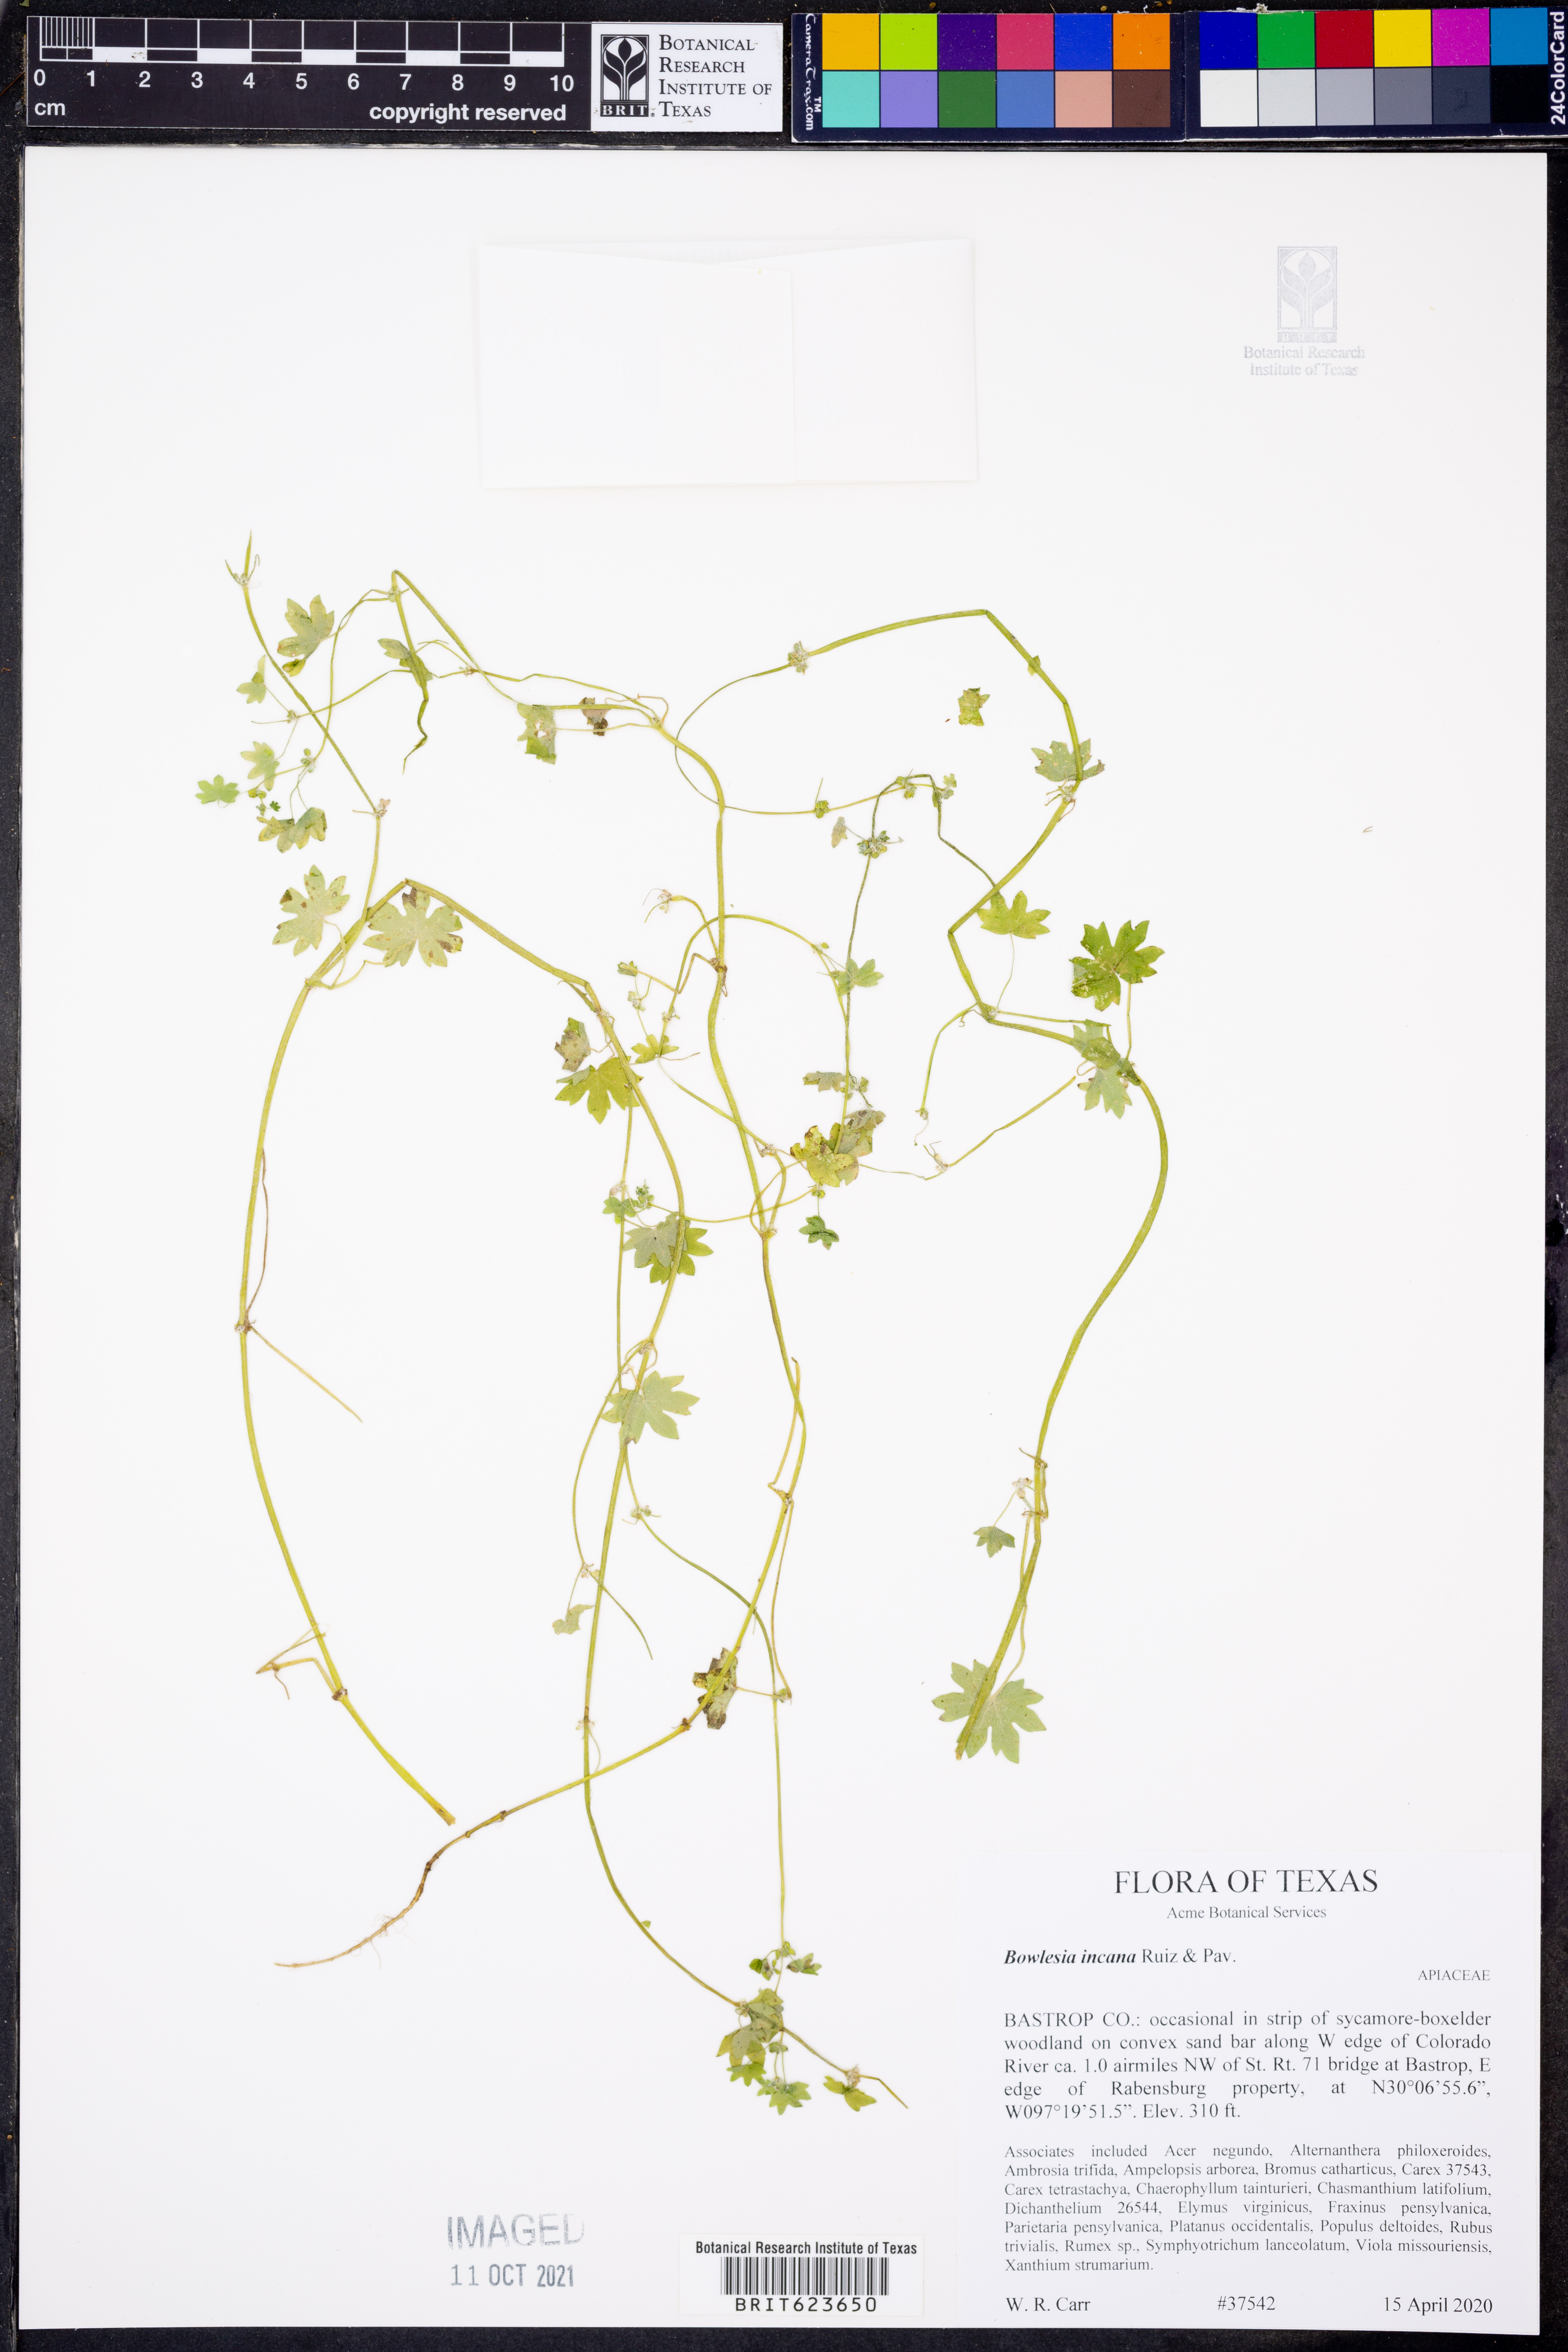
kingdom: Plantae
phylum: Tracheophyta
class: Magnoliopsida
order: Apiales
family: Apiaceae
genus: Bowlesia
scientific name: Bowlesia incana
